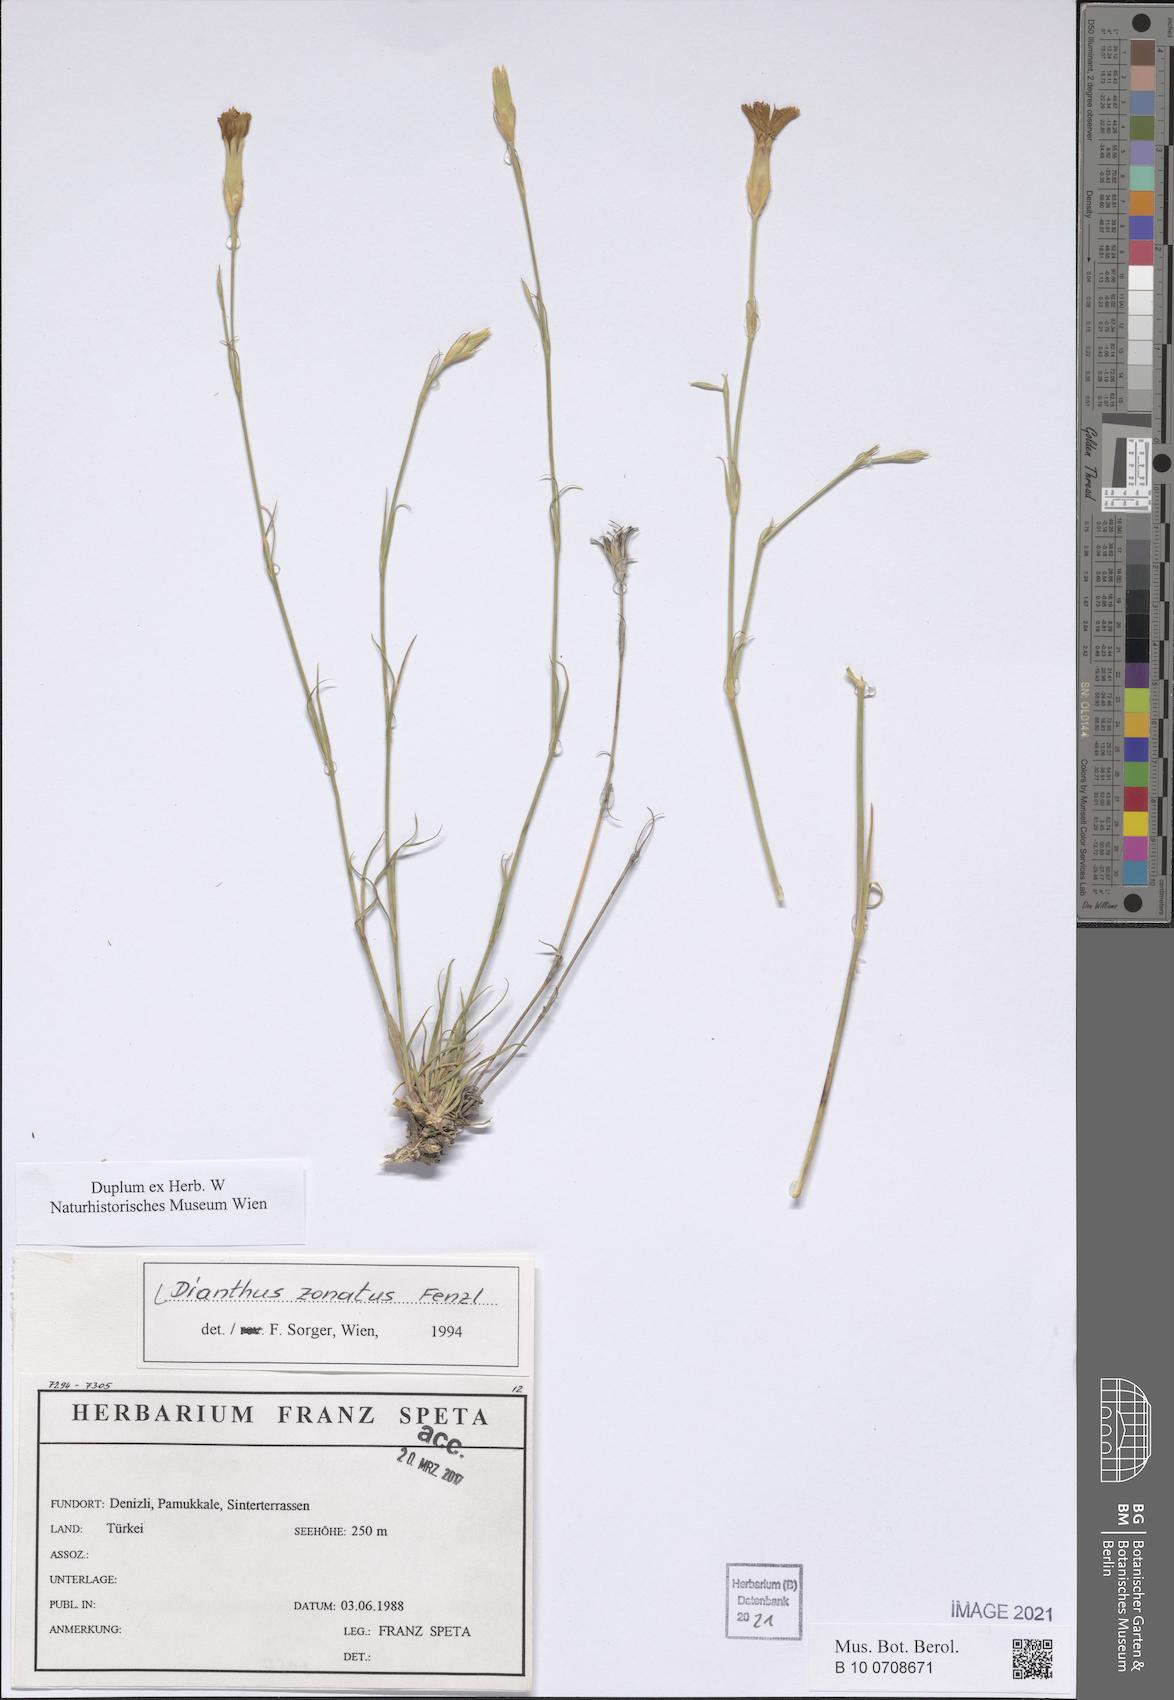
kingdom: Plantae
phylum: Tracheophyta
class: Magnoliopsida
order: Caryophyllales
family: Caryophyllaceae
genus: Dianthus
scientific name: Dianthus zonatus
